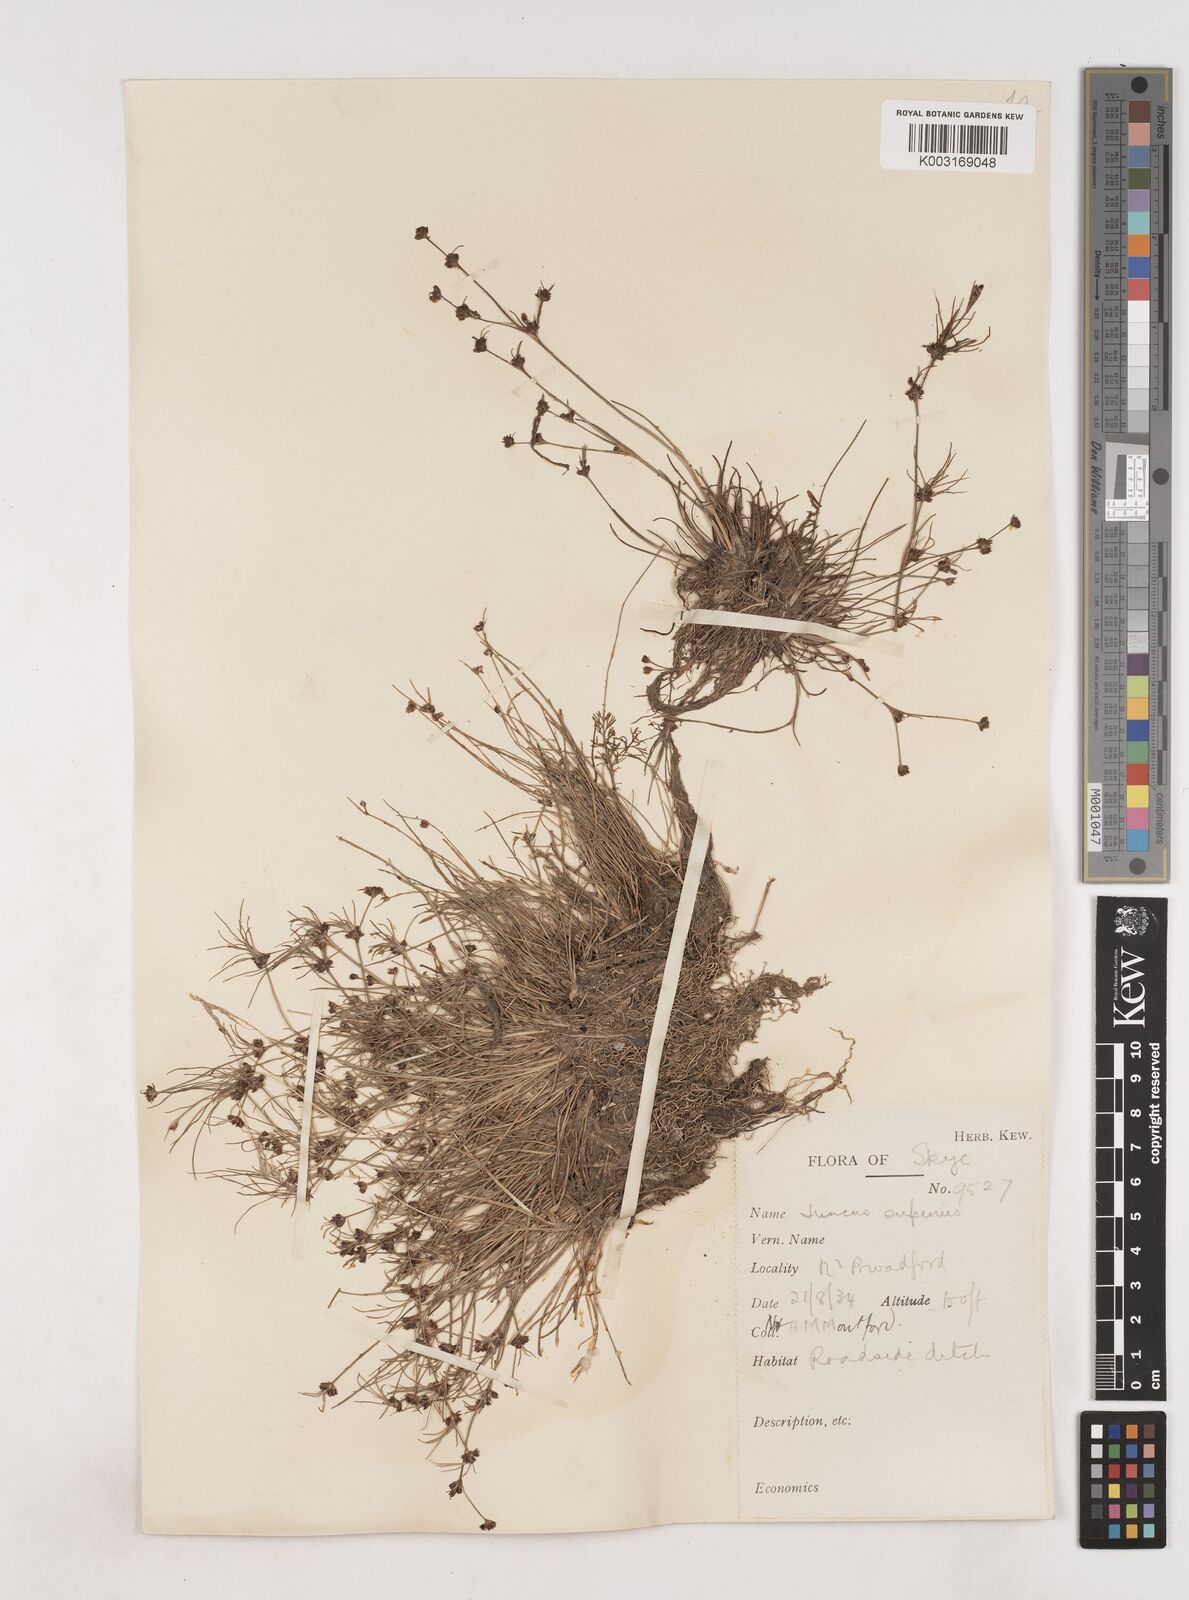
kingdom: Plantae
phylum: Tracheophyta
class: Liliopsida
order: Poales
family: Juncaceae
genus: Juncus
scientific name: Juncus bulbosus
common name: Bulbous rush
